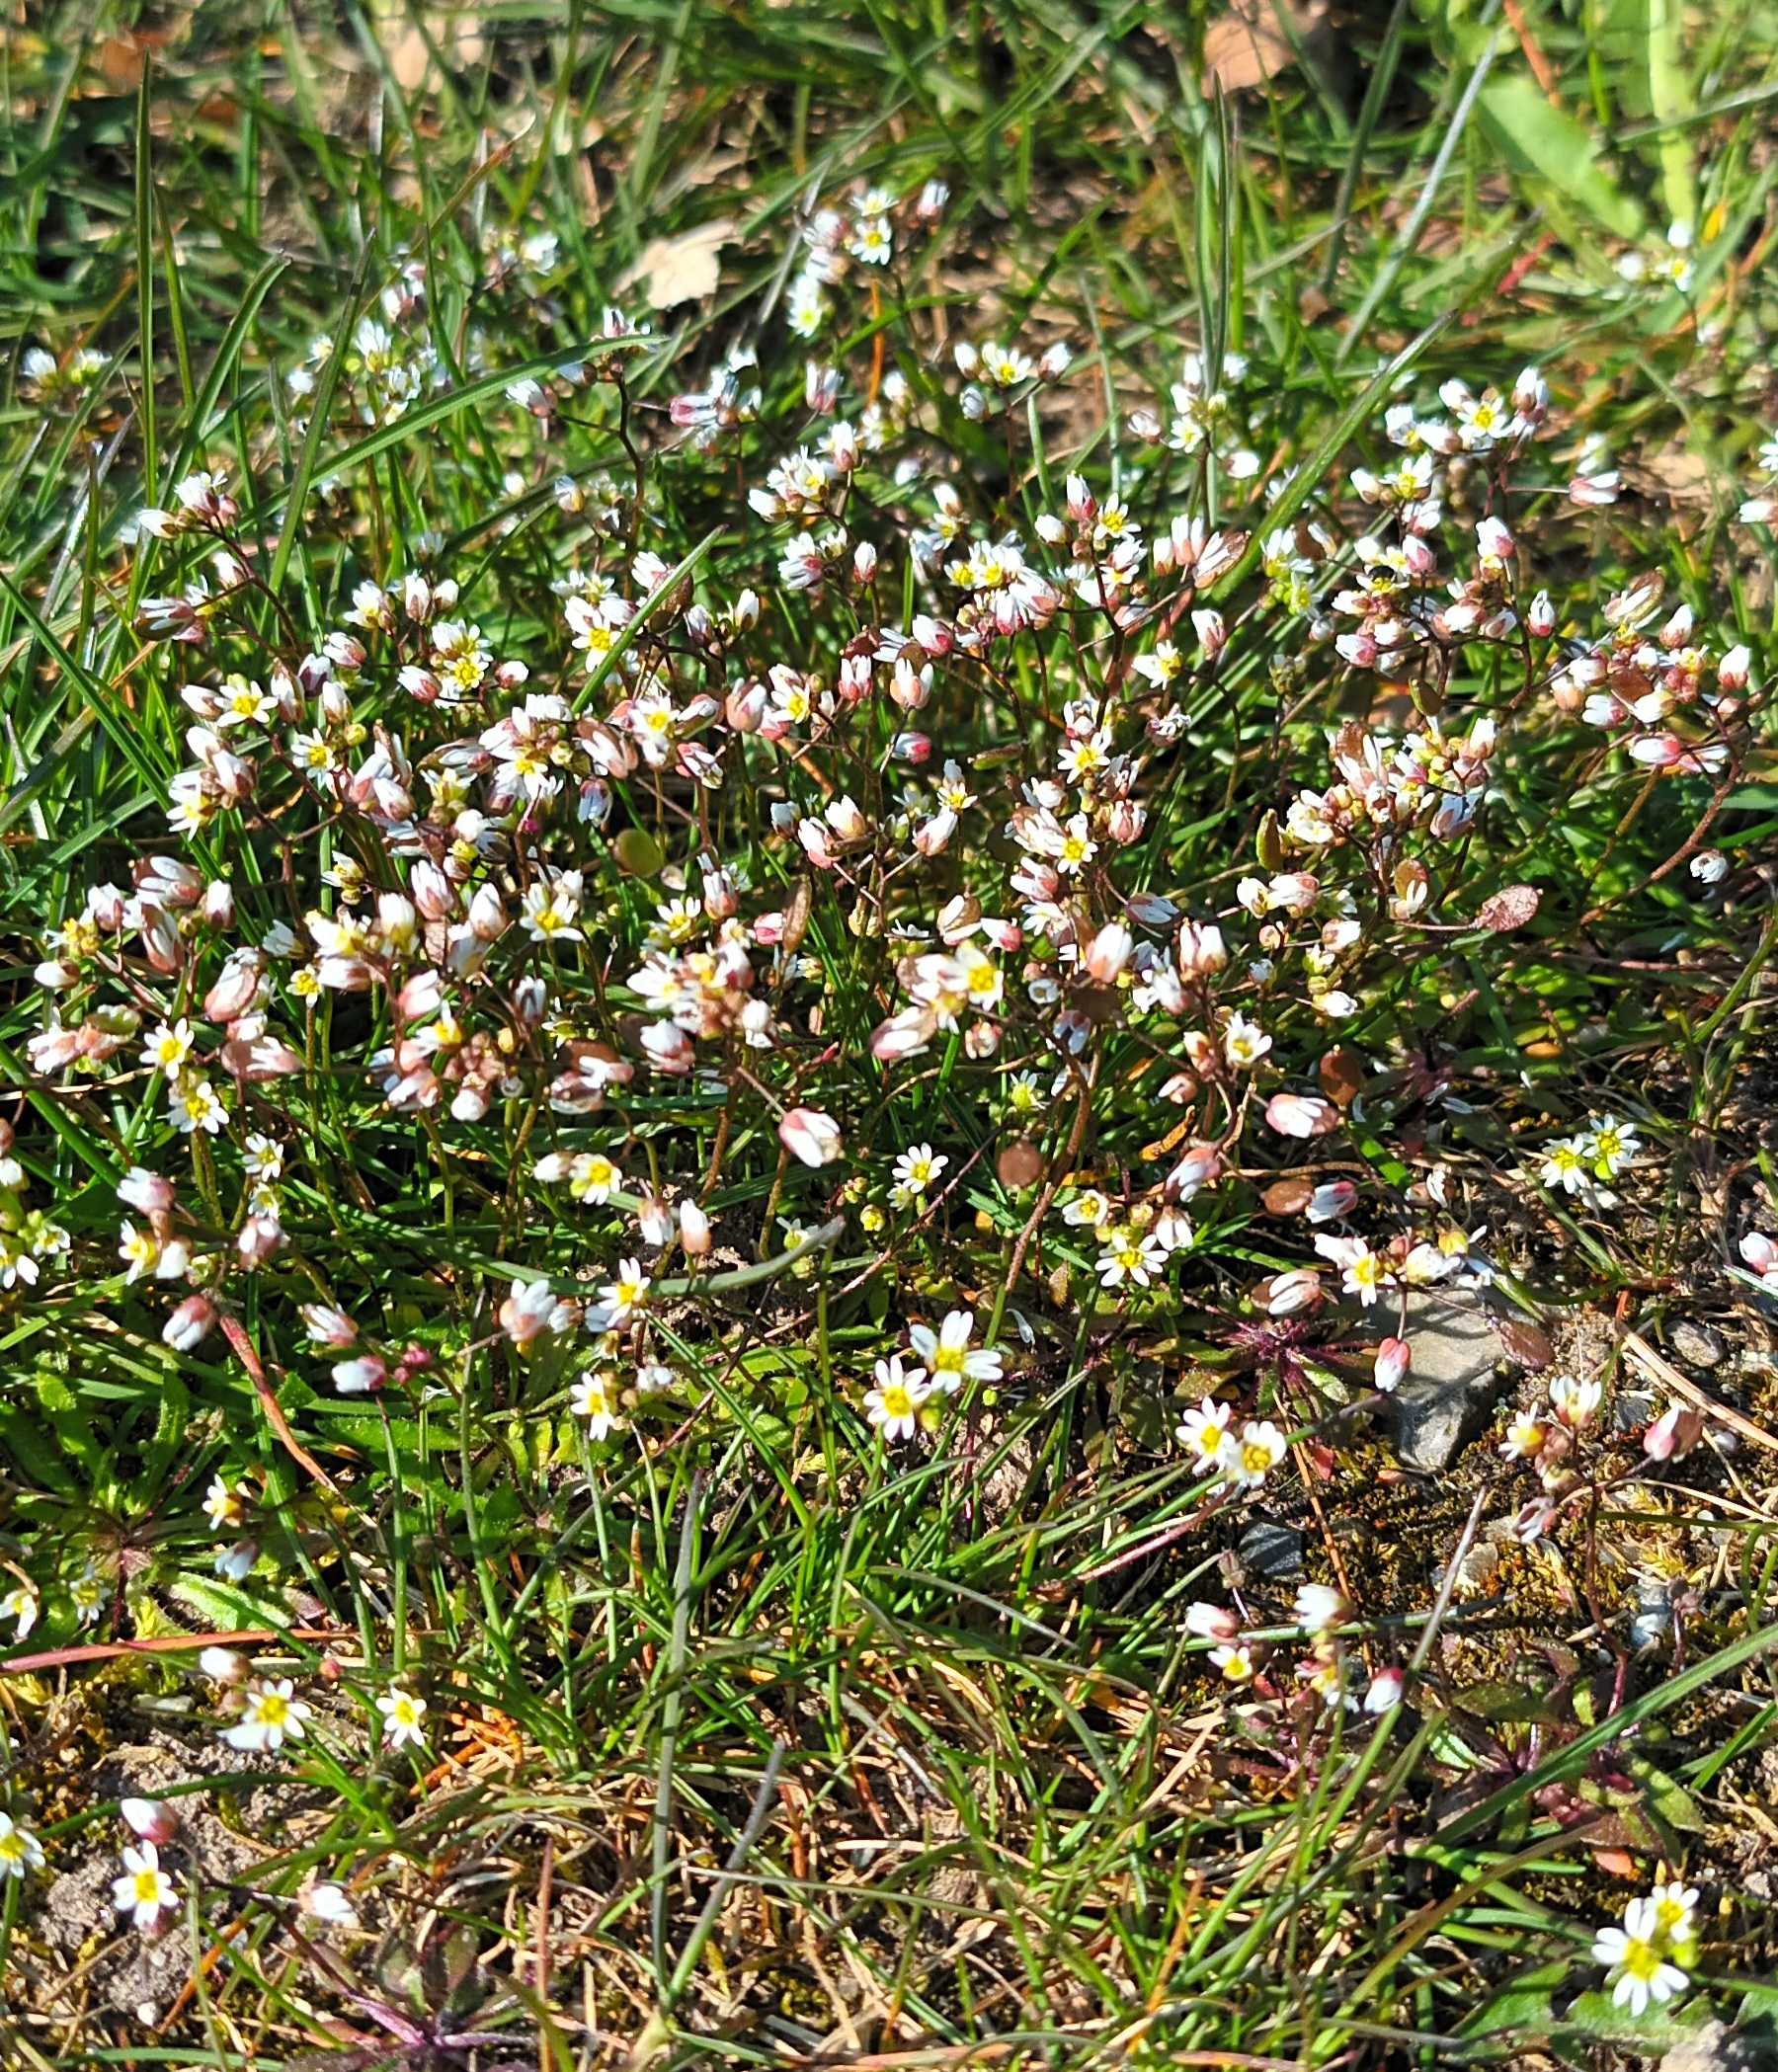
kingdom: Plantae
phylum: Tracheophyta
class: Magnoliopsida
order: Brassicales
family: Brassicaceae
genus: Draba
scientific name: Draba verna
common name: Vår-gæslingeblomst
